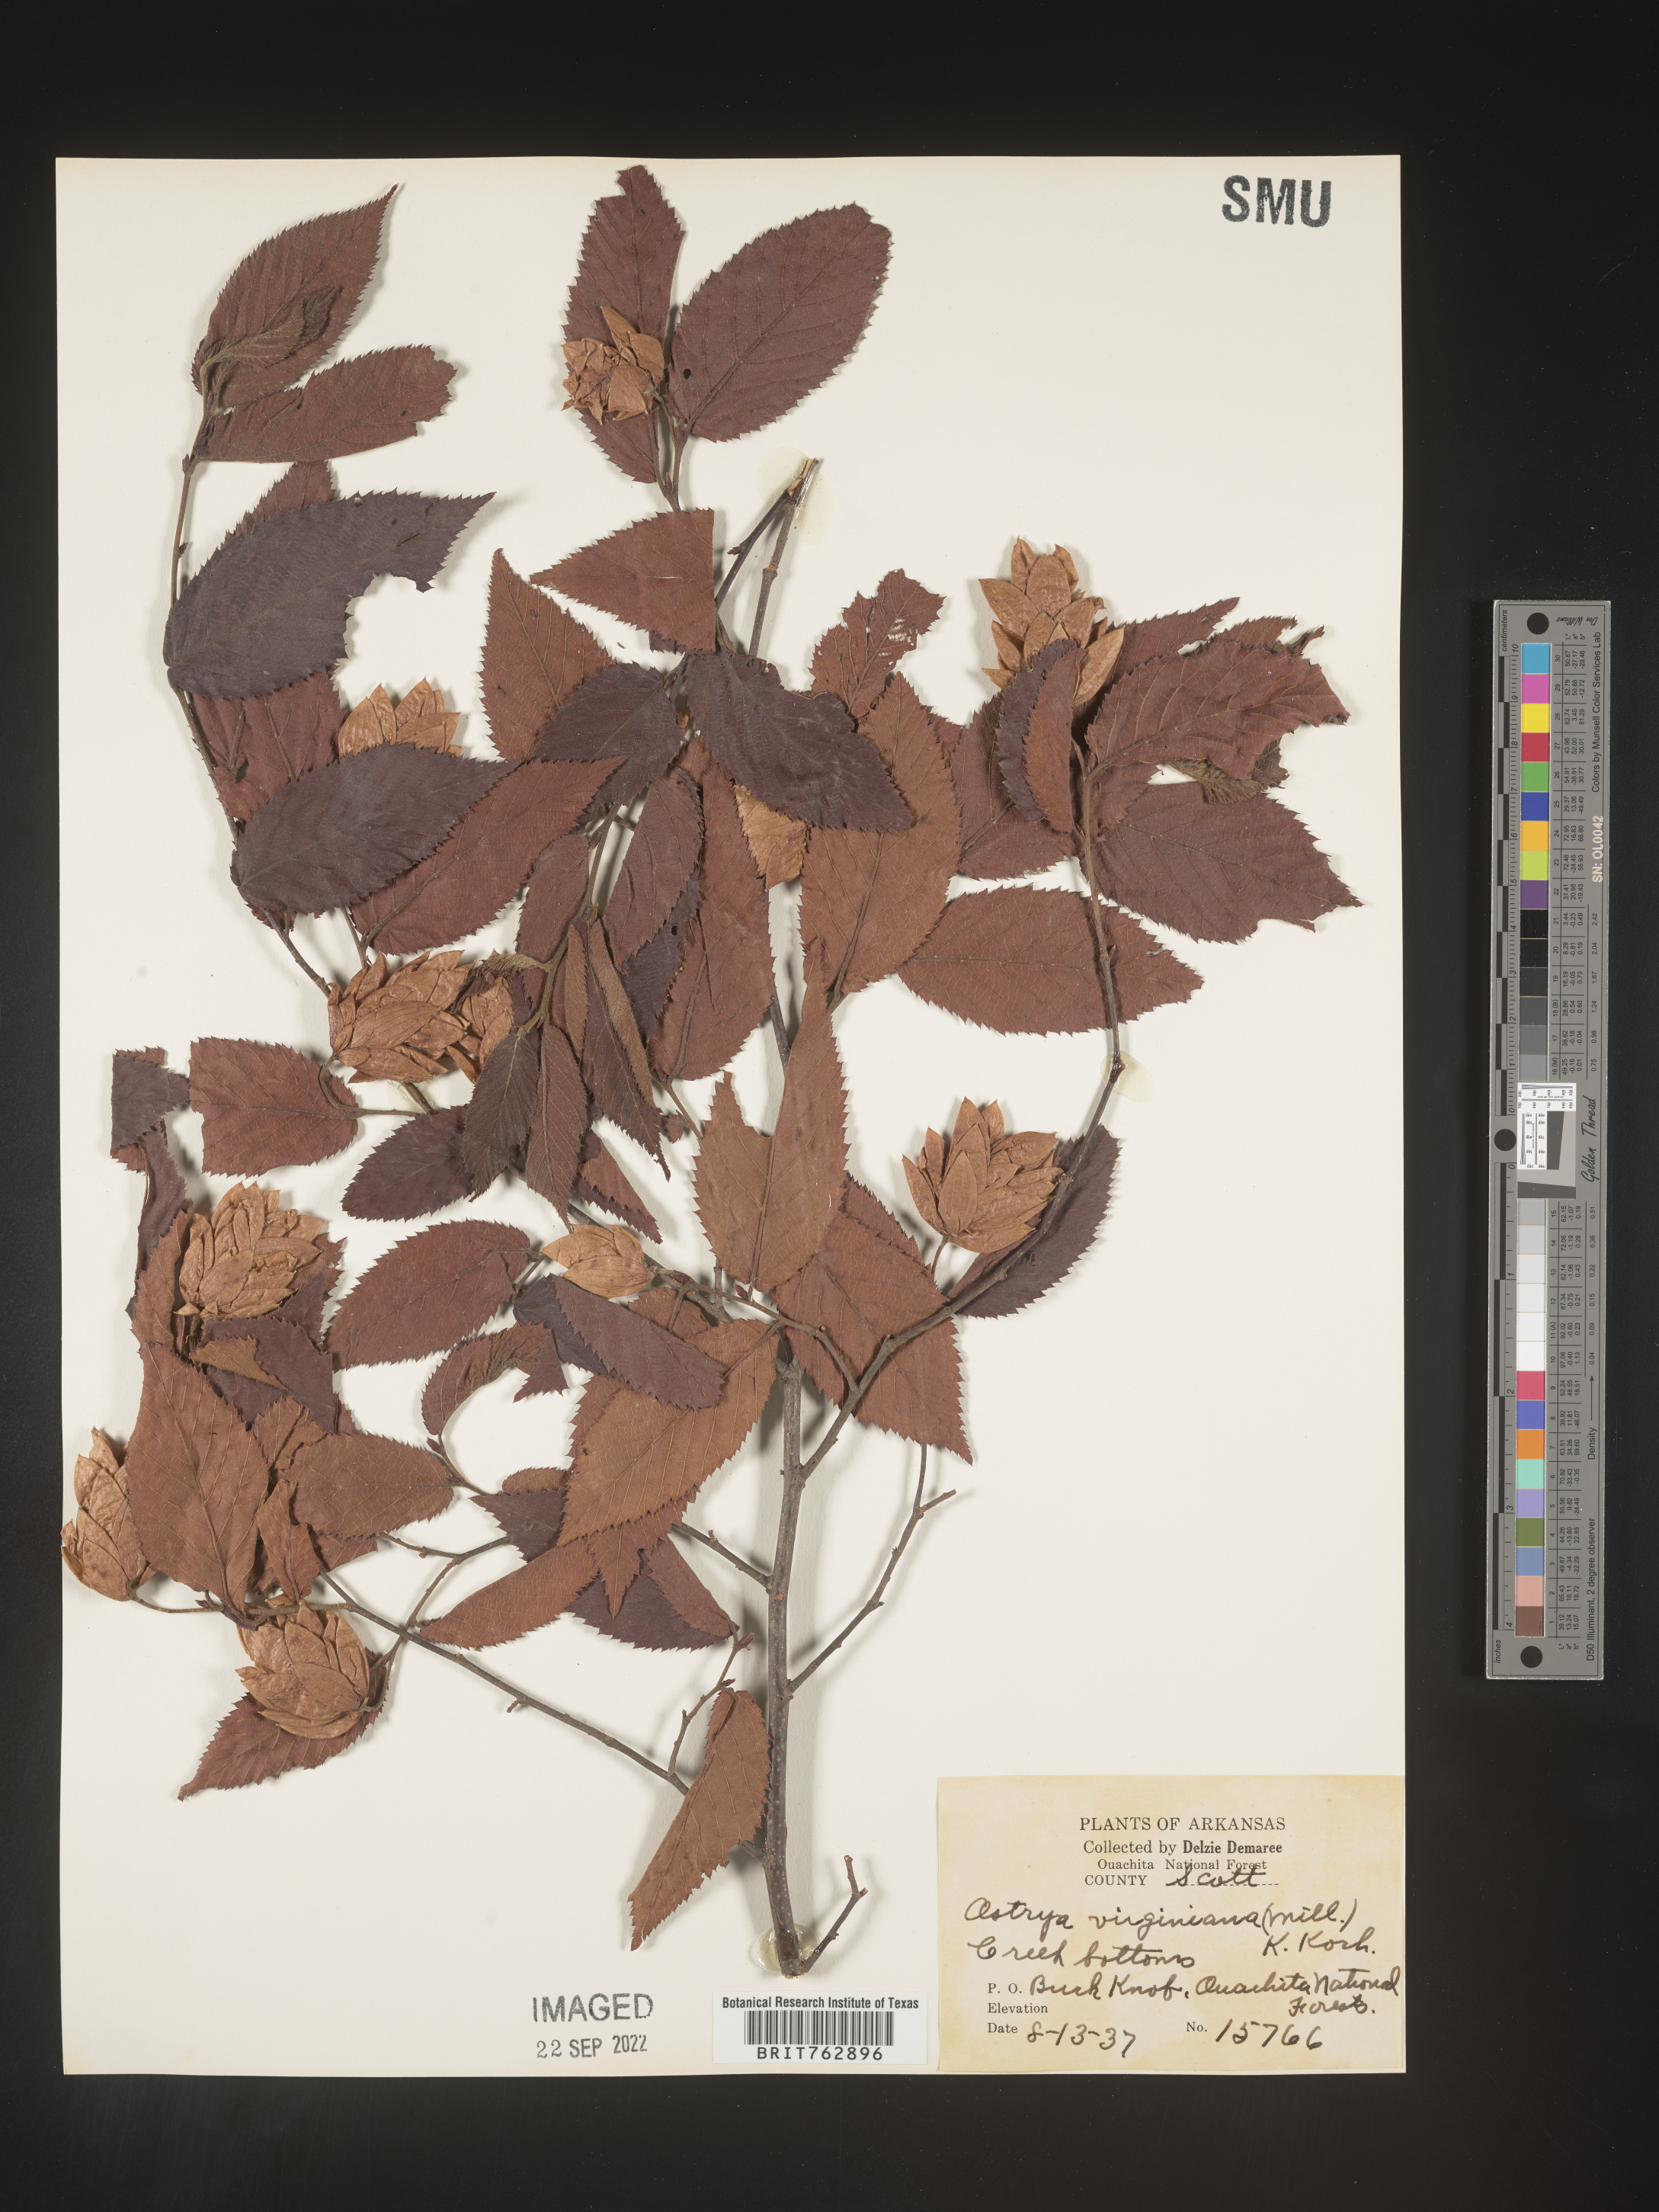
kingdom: Plantae
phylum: Tracheophyta
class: Magnoliopsida
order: Fagales
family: Betulaceae
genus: Ostrya
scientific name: Ostrya virginiana
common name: Ironwood
